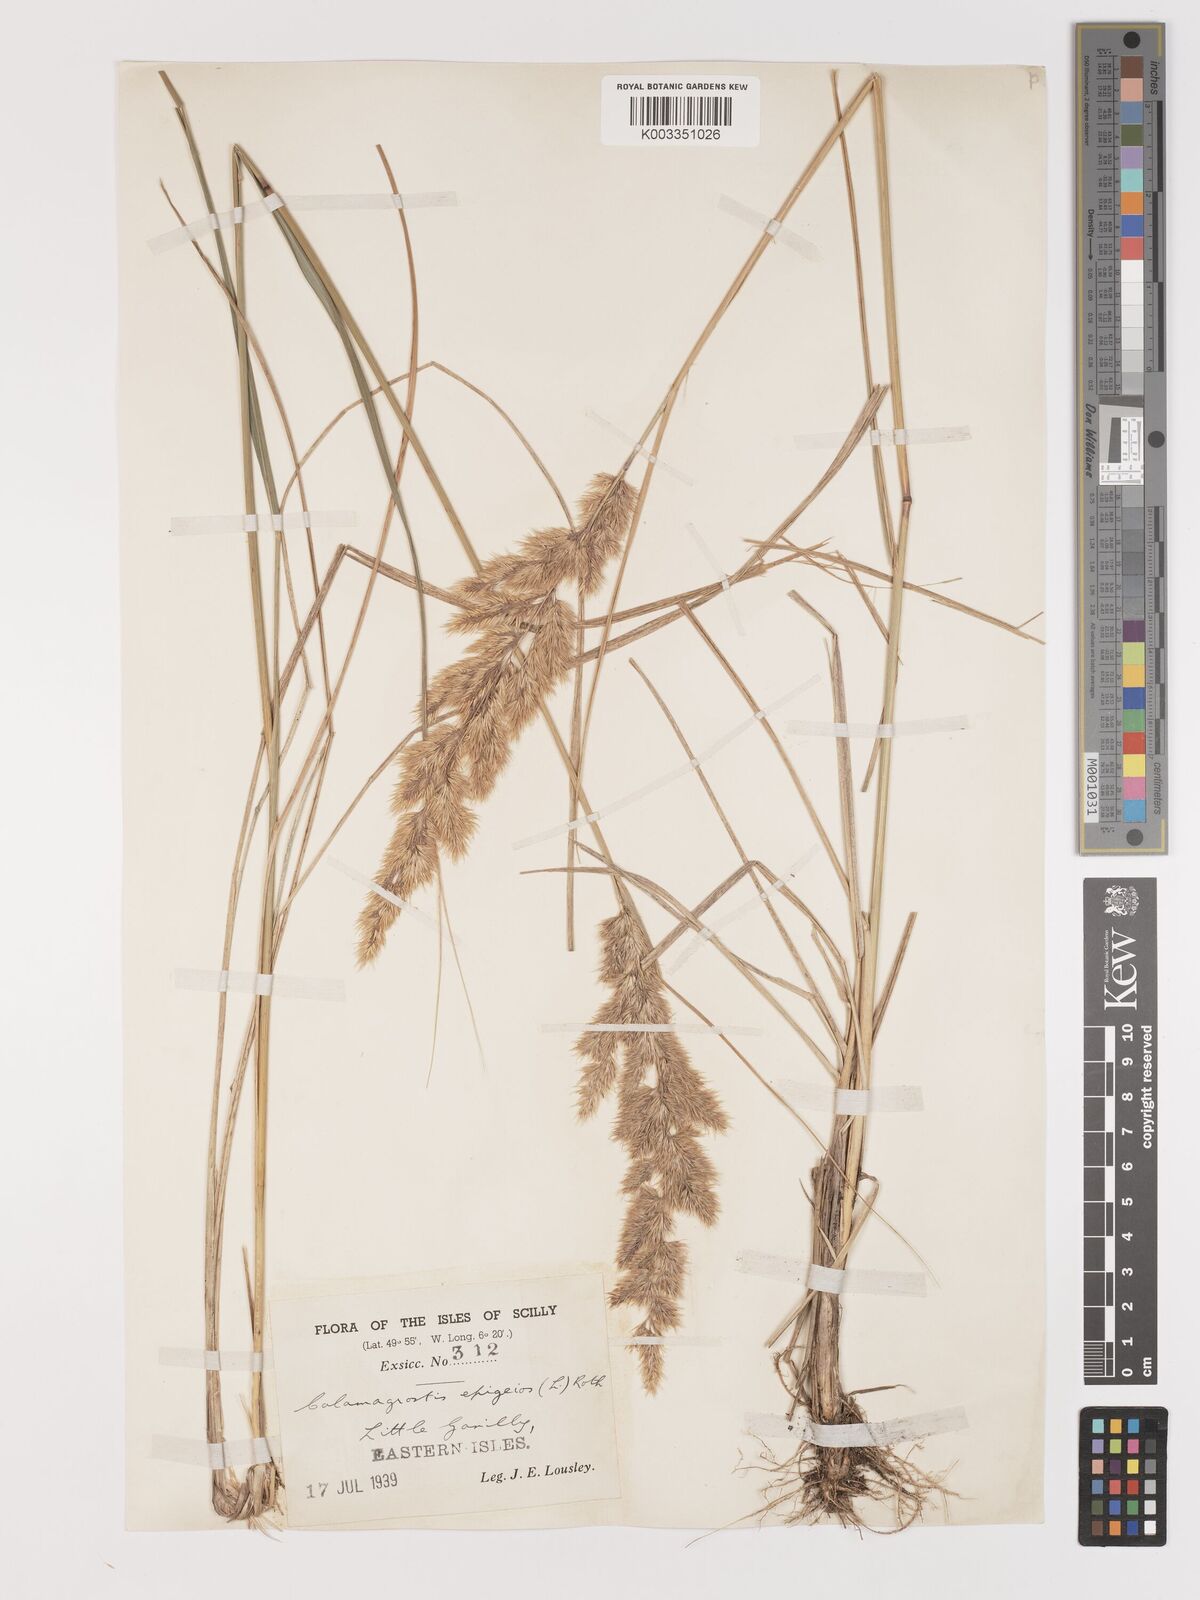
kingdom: Plantae
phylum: Tracheophyta
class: Liliopsida
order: Poales
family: Poaceae
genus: Calamagrostis
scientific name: Calamagrostis epigejos
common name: Wood small-reed
